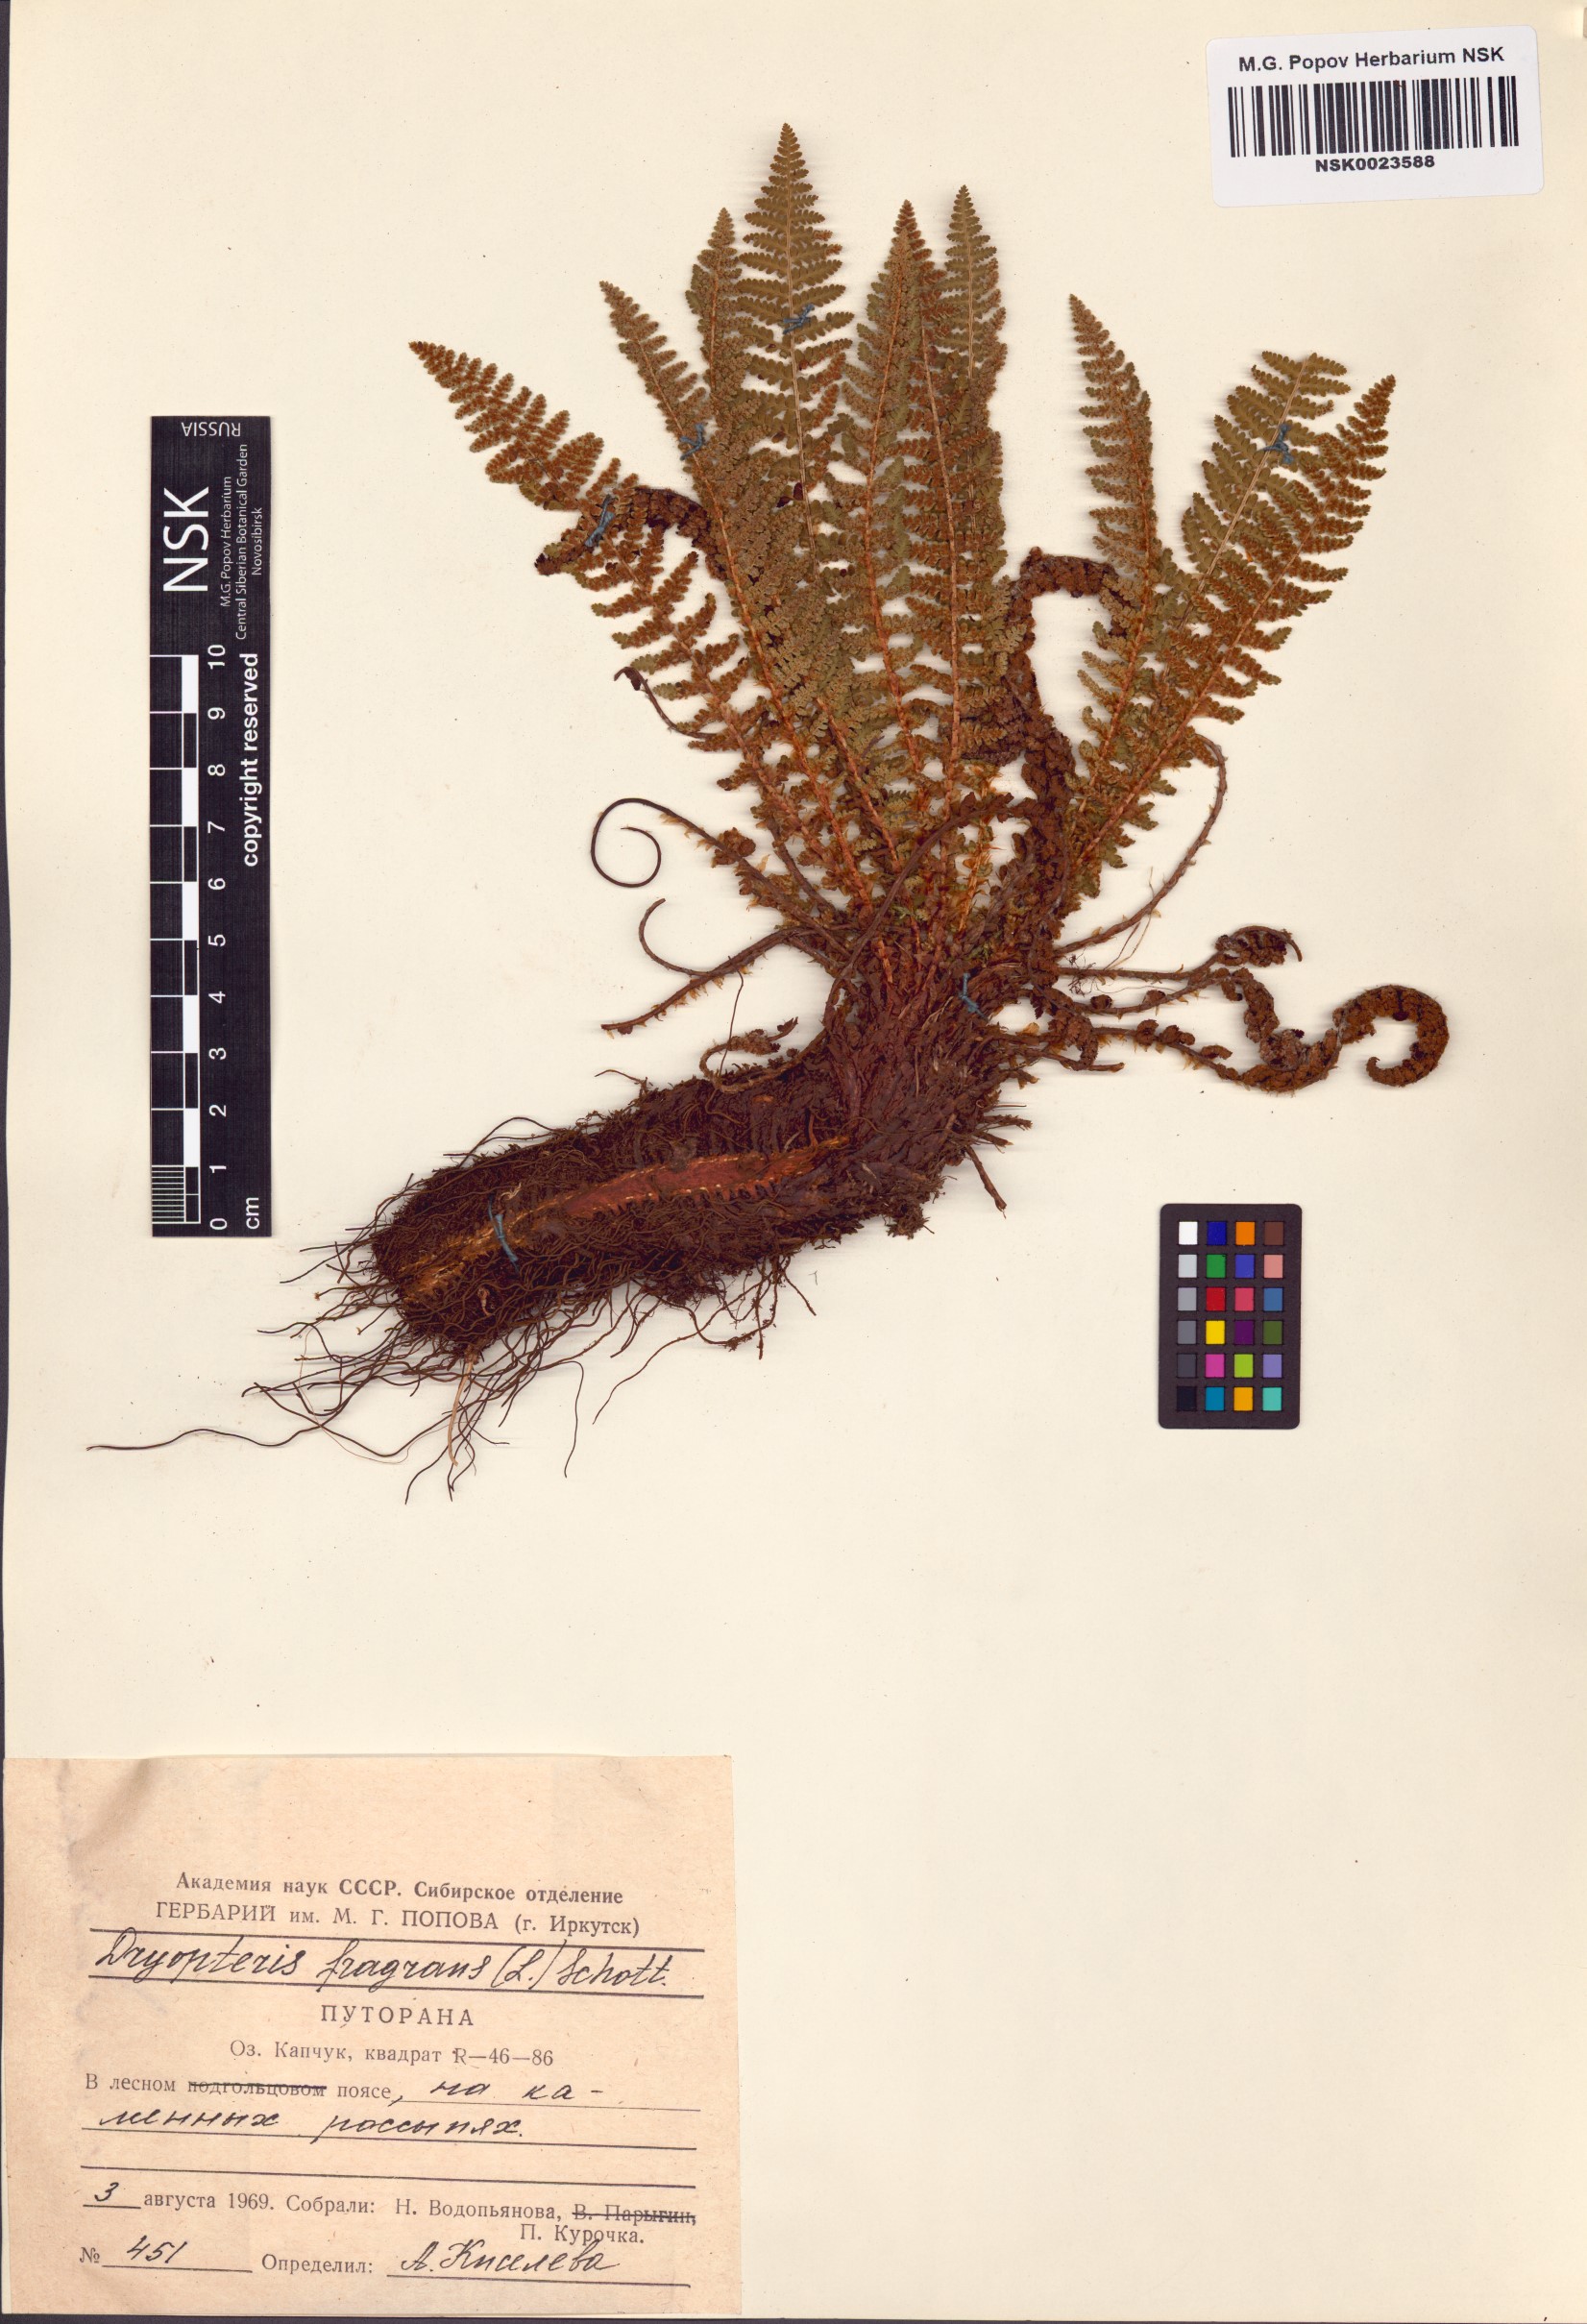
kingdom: Plantae
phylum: Tracheophyta
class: Polypodiopsida
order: Polypodiales
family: Dryopteridaceae
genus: Dryopteris
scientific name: Dryopteris fragrans
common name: Fragrant wood fern
